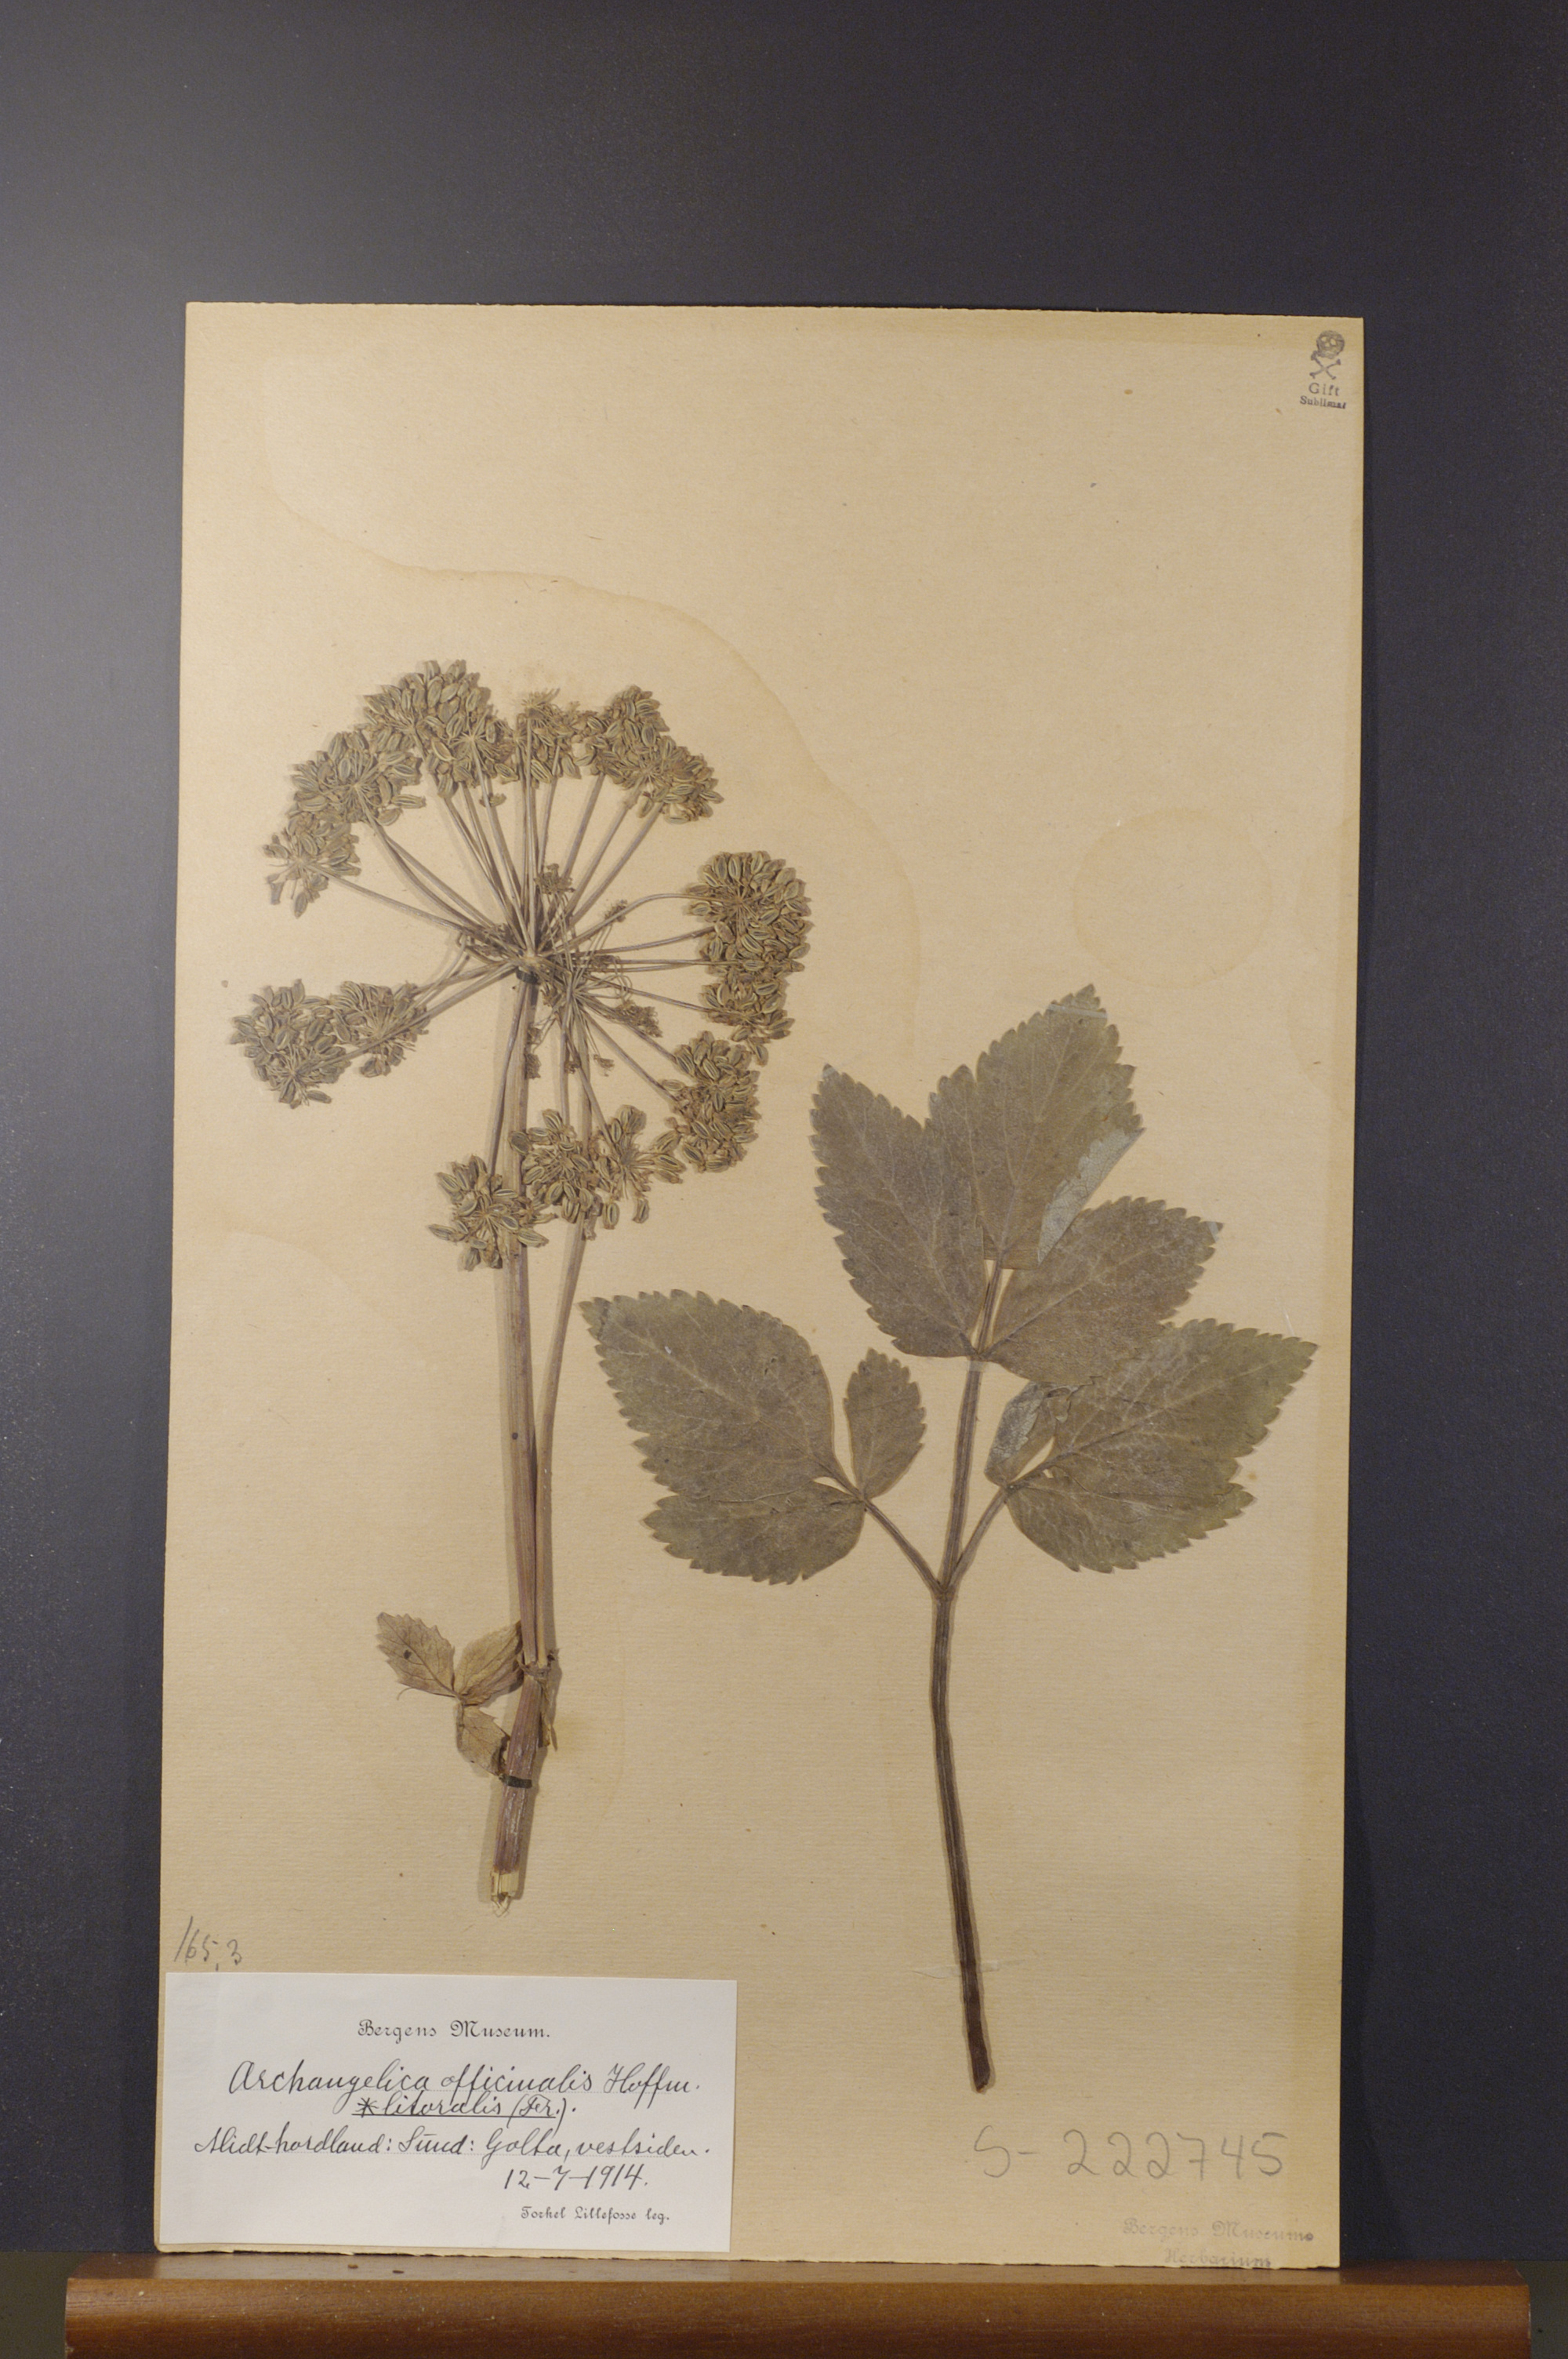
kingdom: Plantae
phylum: Tracheophyta
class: Magnoliopsida
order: Apiales
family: Apiaceae
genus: Angelica
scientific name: Angelica archangelica
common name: Garden angelica
